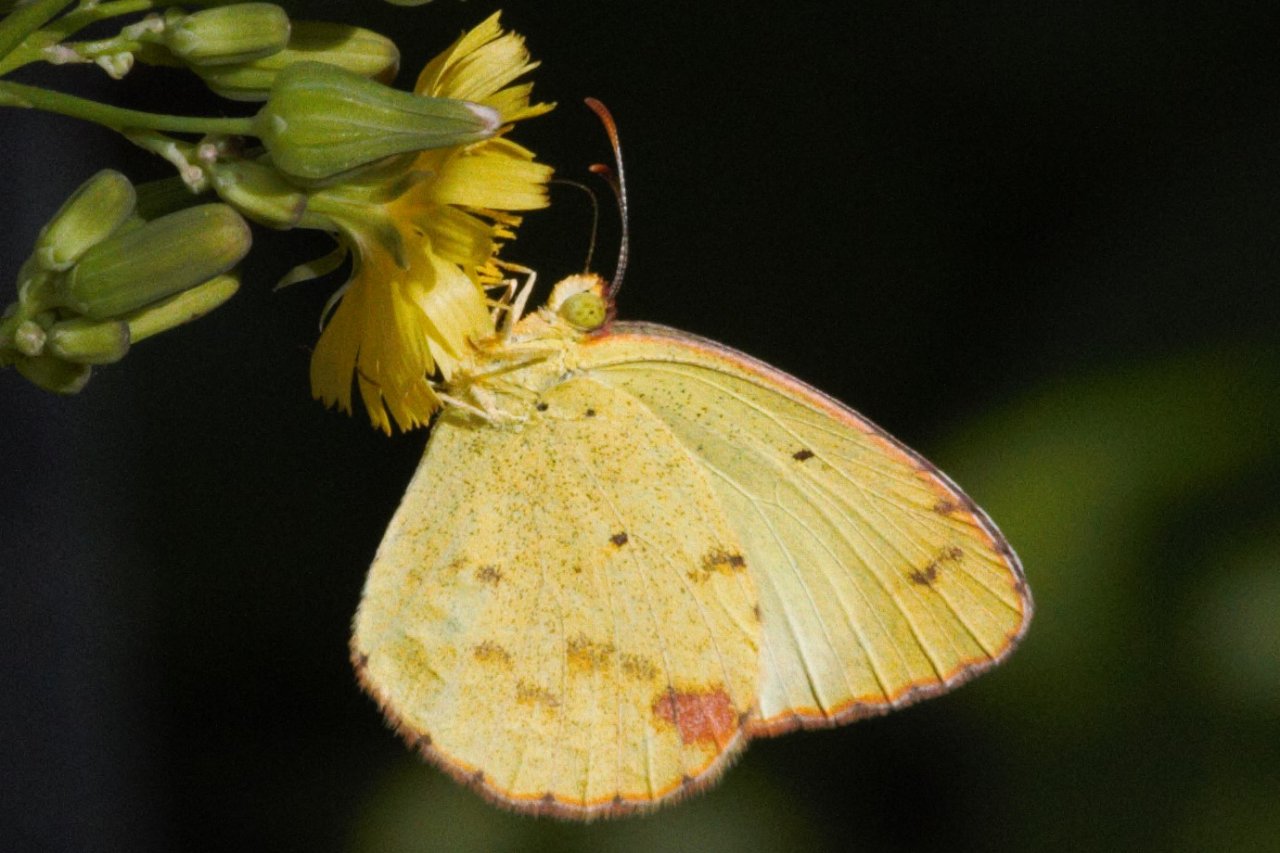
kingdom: Animalia
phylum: Arthropoda
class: Insecta
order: Lepidoptera
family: Pieridae
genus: Pyrisitia
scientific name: Pyrisitia lisa
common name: Little Yellow
